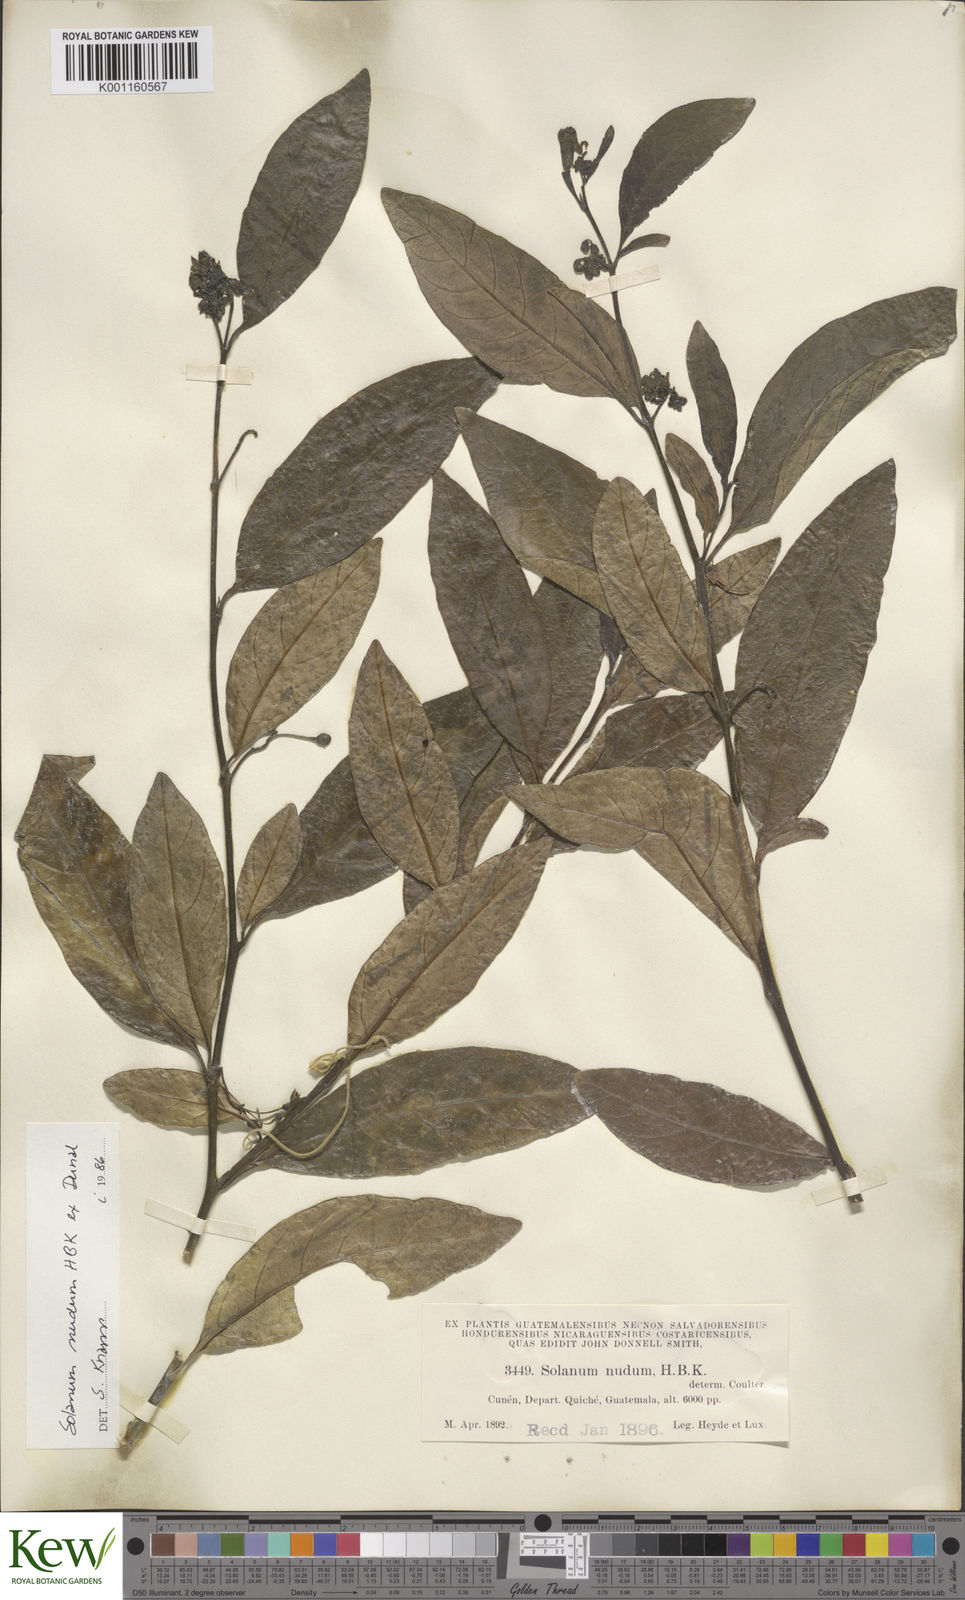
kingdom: Plantae
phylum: Tracheophyta
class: Magnoliopsida
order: Solanales
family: Solanaceae
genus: Solanum
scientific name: Solanum nudum
